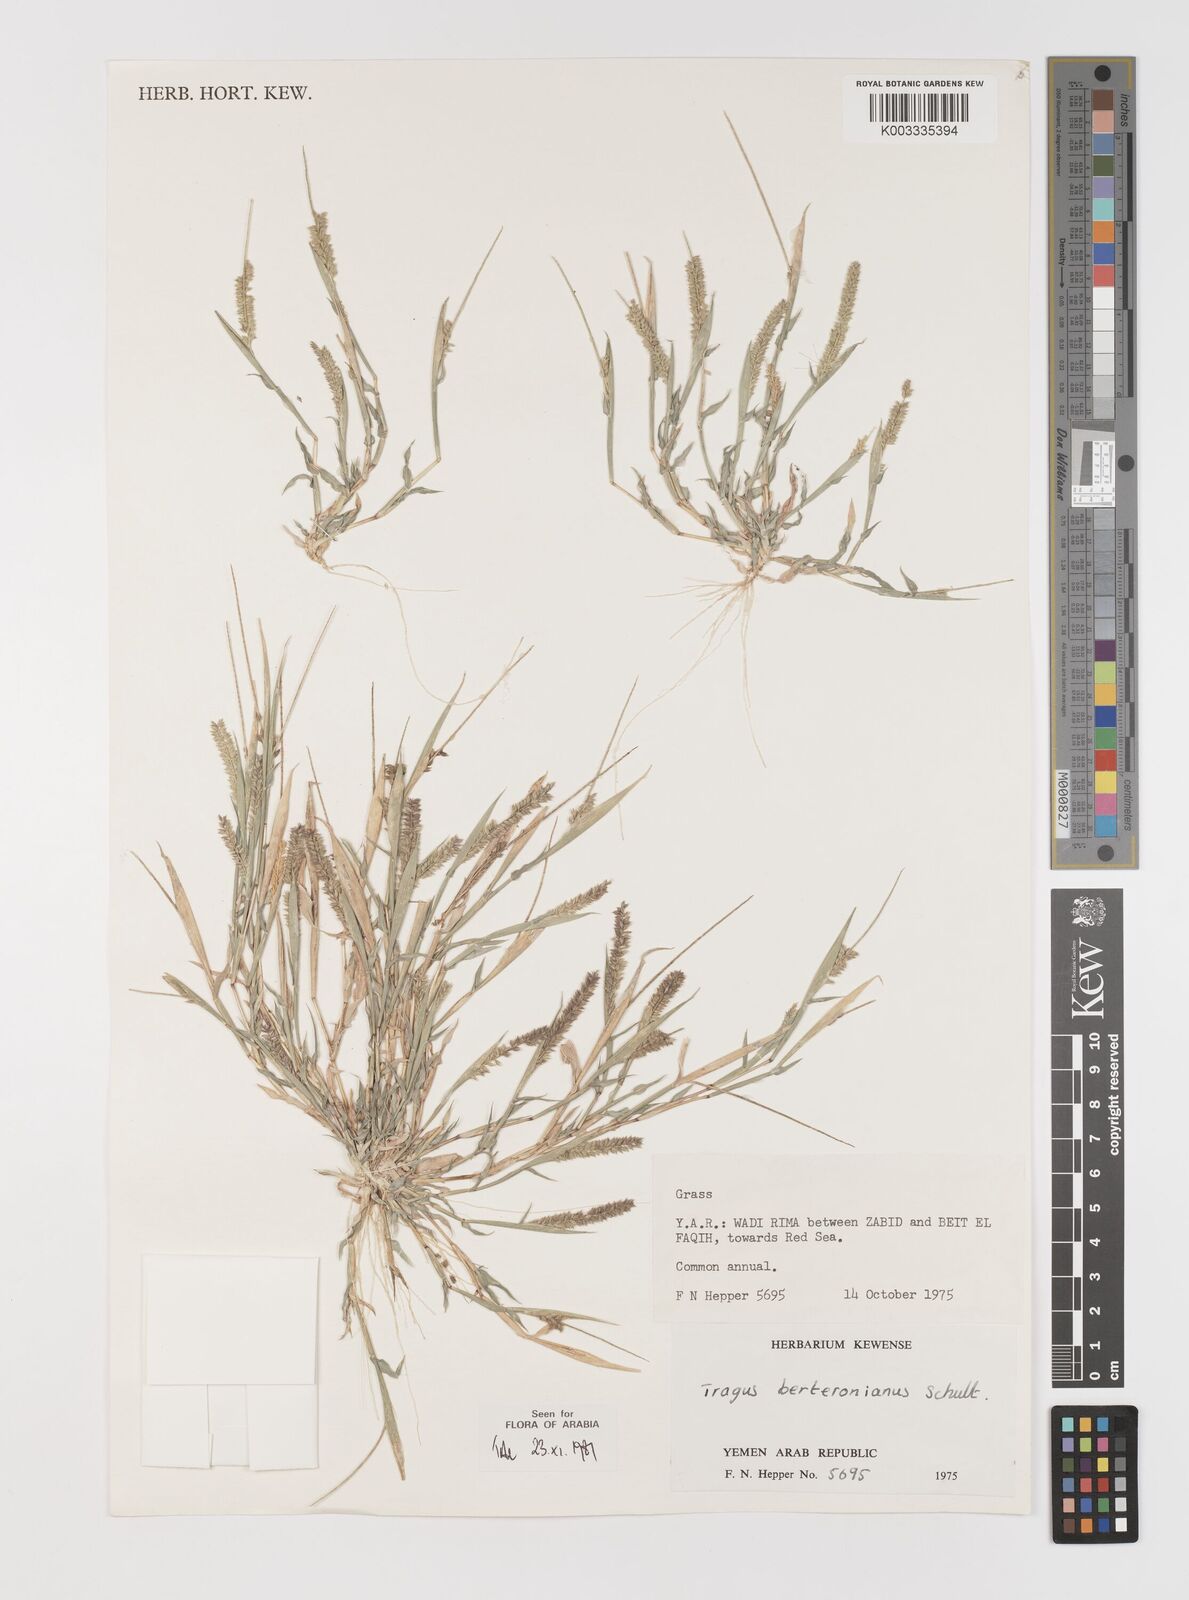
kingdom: Plantae
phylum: Tracheophyta
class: Liliopsida
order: Poales
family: Poaceae
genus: Tragus
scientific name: Tragus berteronianus
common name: African bur-grass
